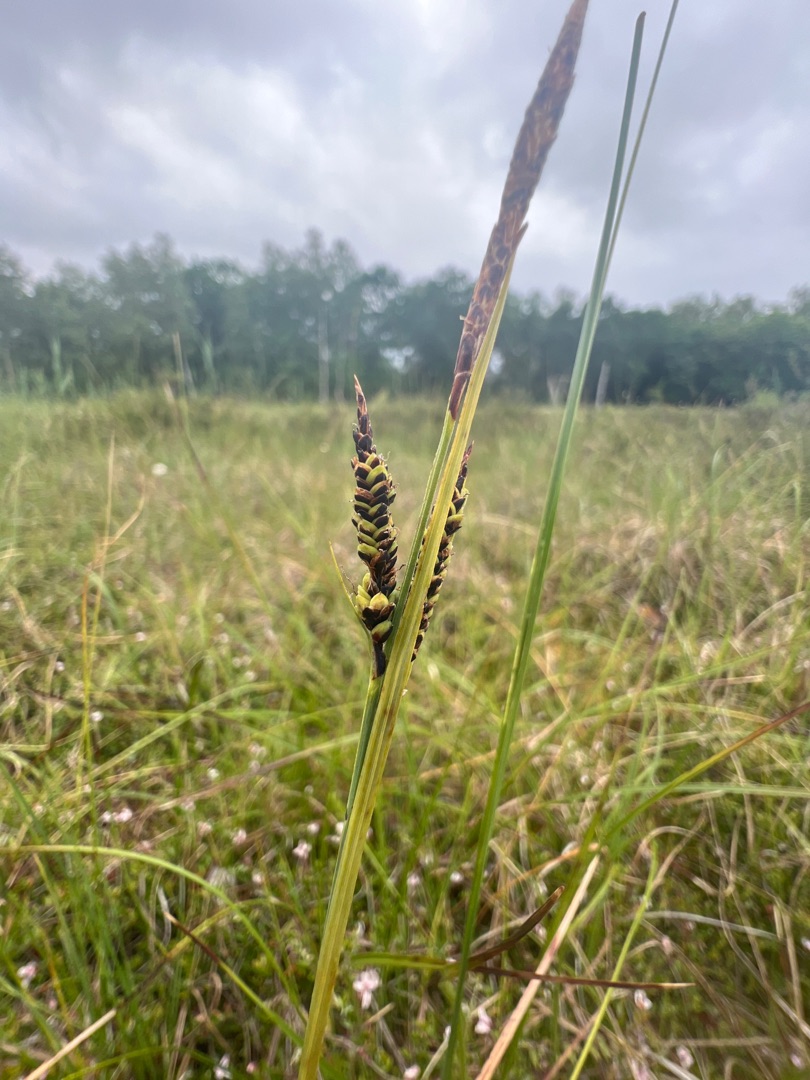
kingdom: Plantae
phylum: Tracheophyta
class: Liliopsida
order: Poales
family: Cyperaceae
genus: Carex
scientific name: Carex nigra
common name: Almindelig star (varietet)
